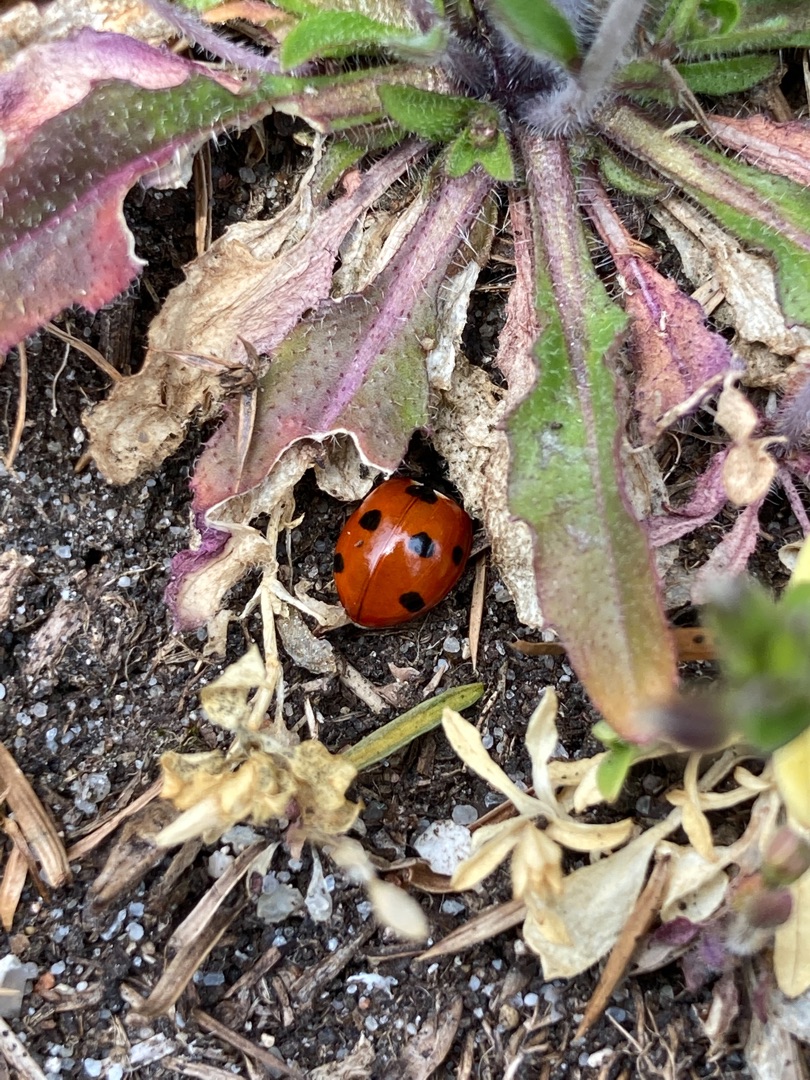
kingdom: Animalia
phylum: Arthropoda
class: Insecta
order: Coleoptera
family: Coccinellidae
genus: Coccinella
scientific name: Coccinella septempunctata
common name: Syvplettet mariehøne
